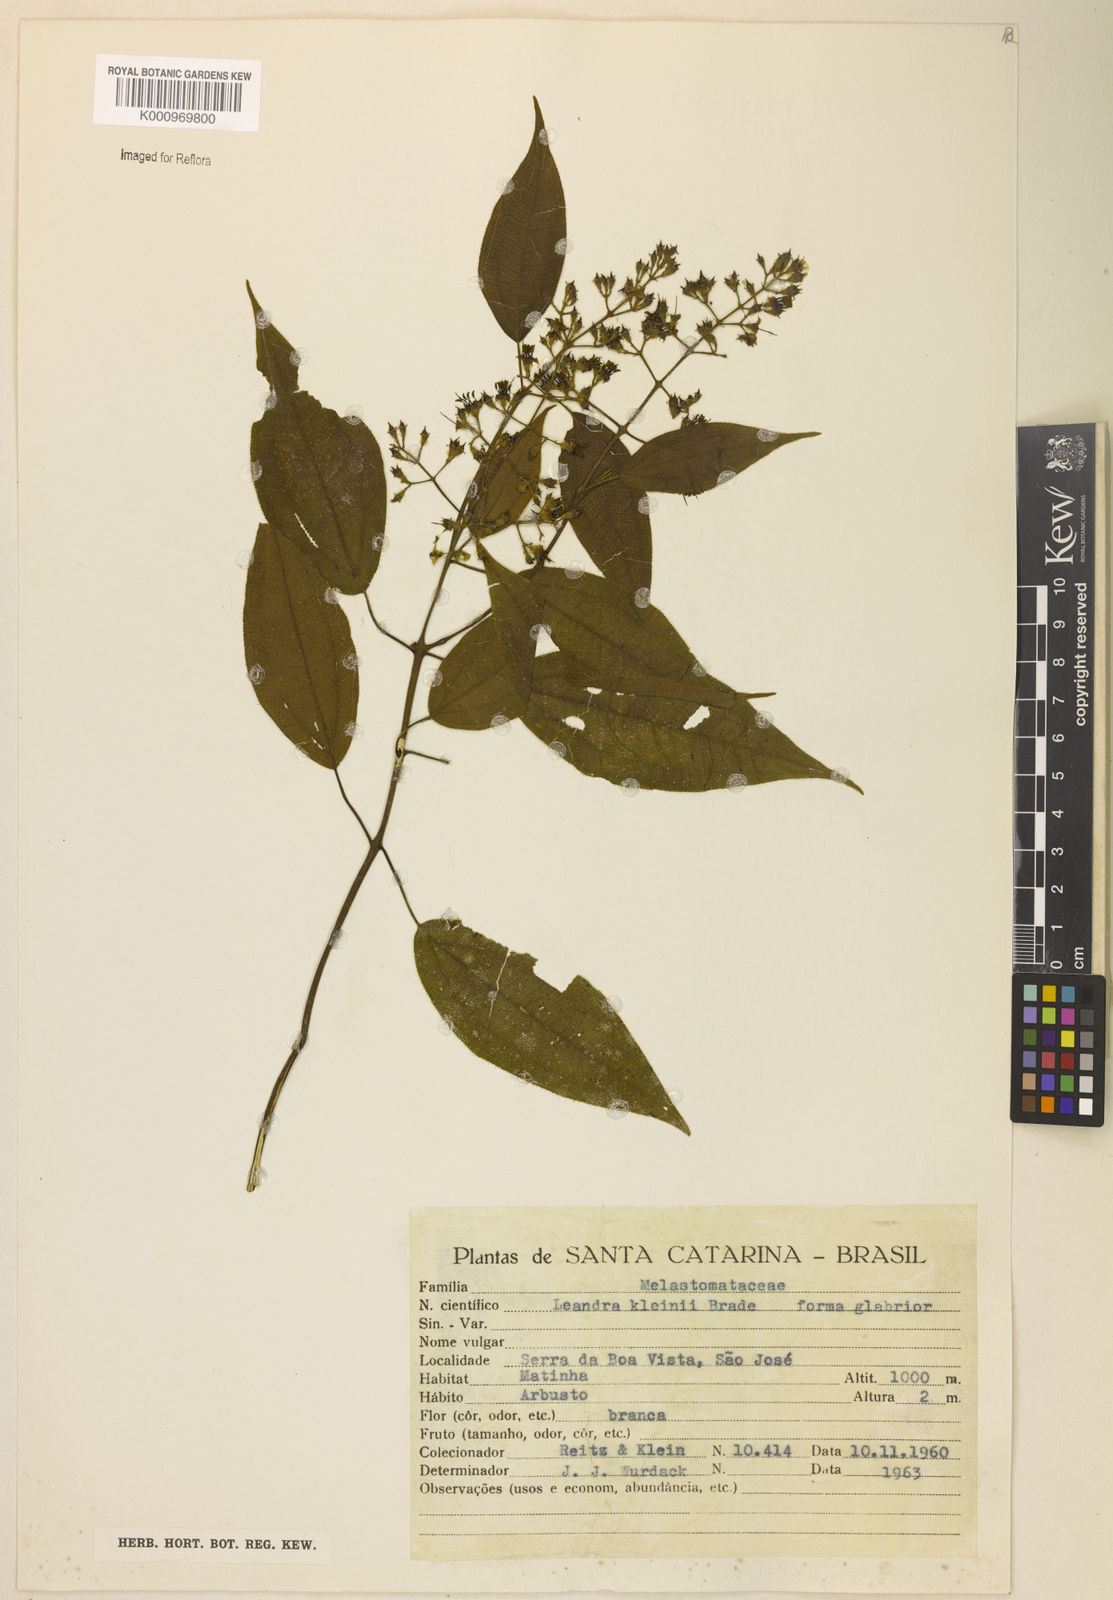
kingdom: Plantae
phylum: Tracheophyta
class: Magnoliopsida
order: Myrtales
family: Melastomataceae
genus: Miconia
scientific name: Miconia leakleinii
